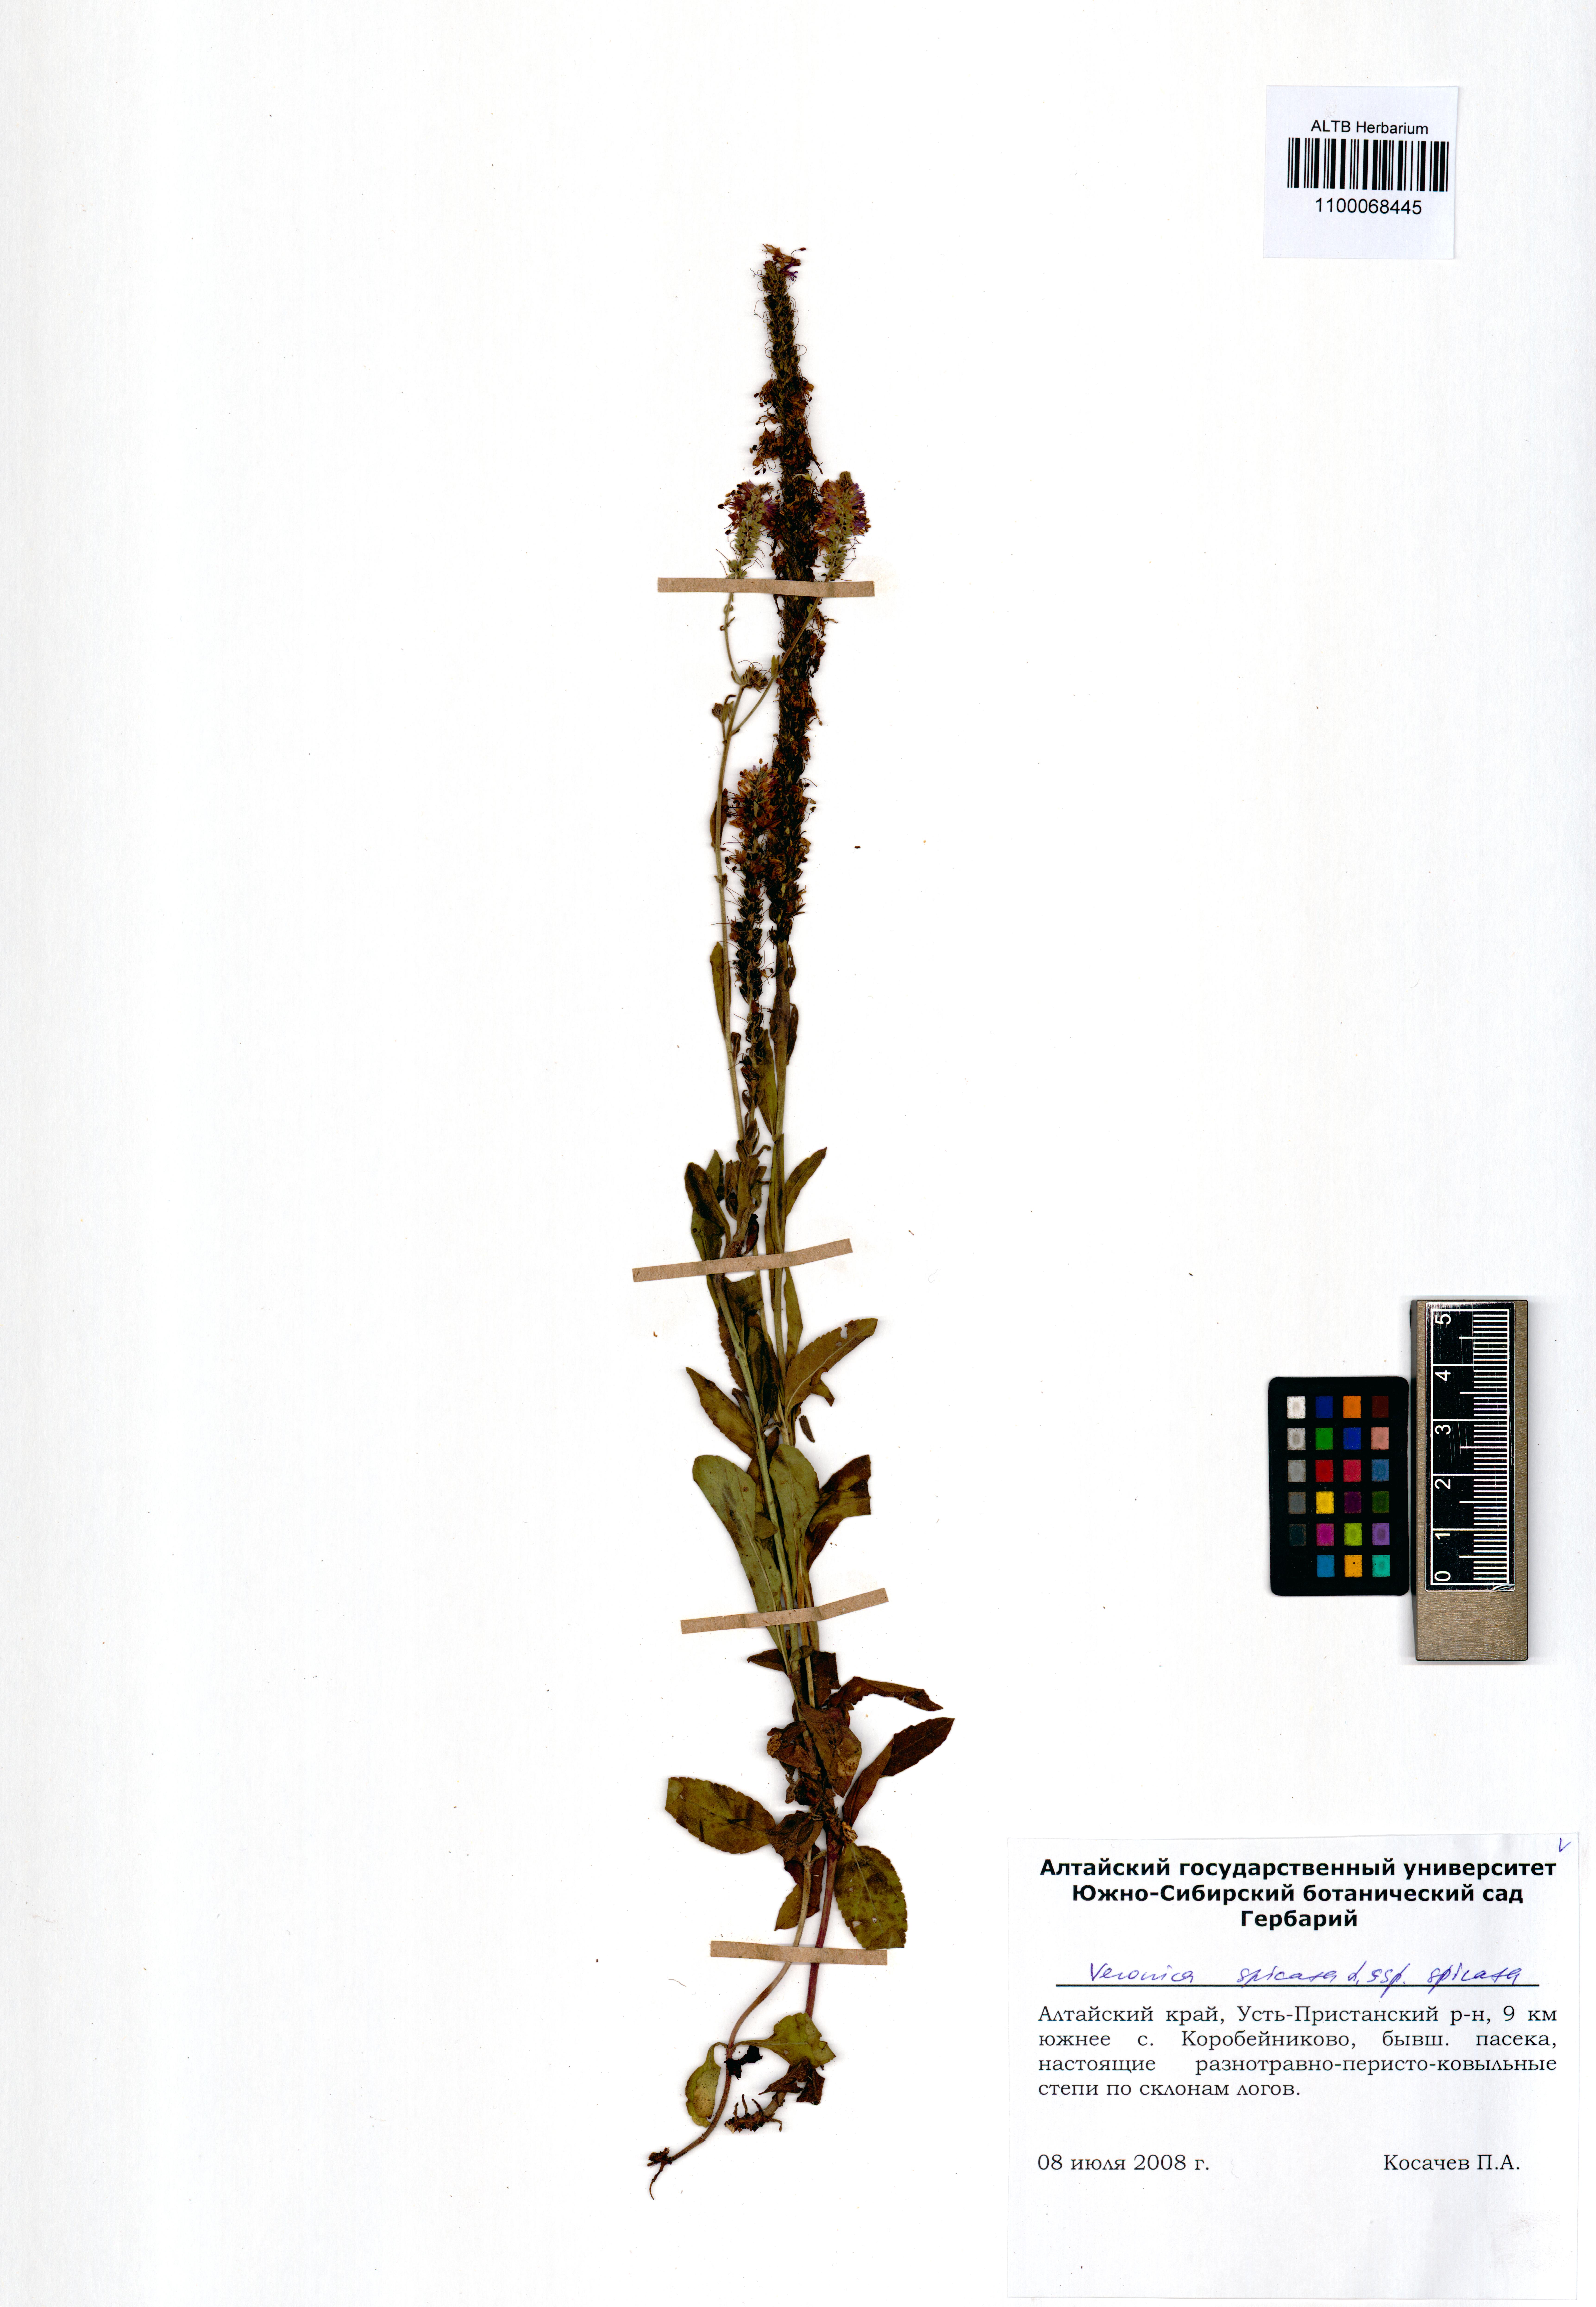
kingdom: Plantae
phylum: Tracheophyta
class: Magnoliopsida
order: Lamiales
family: Plantaginaceae
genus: Veronica
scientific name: Veronica spicata
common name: Spiked speedwell
